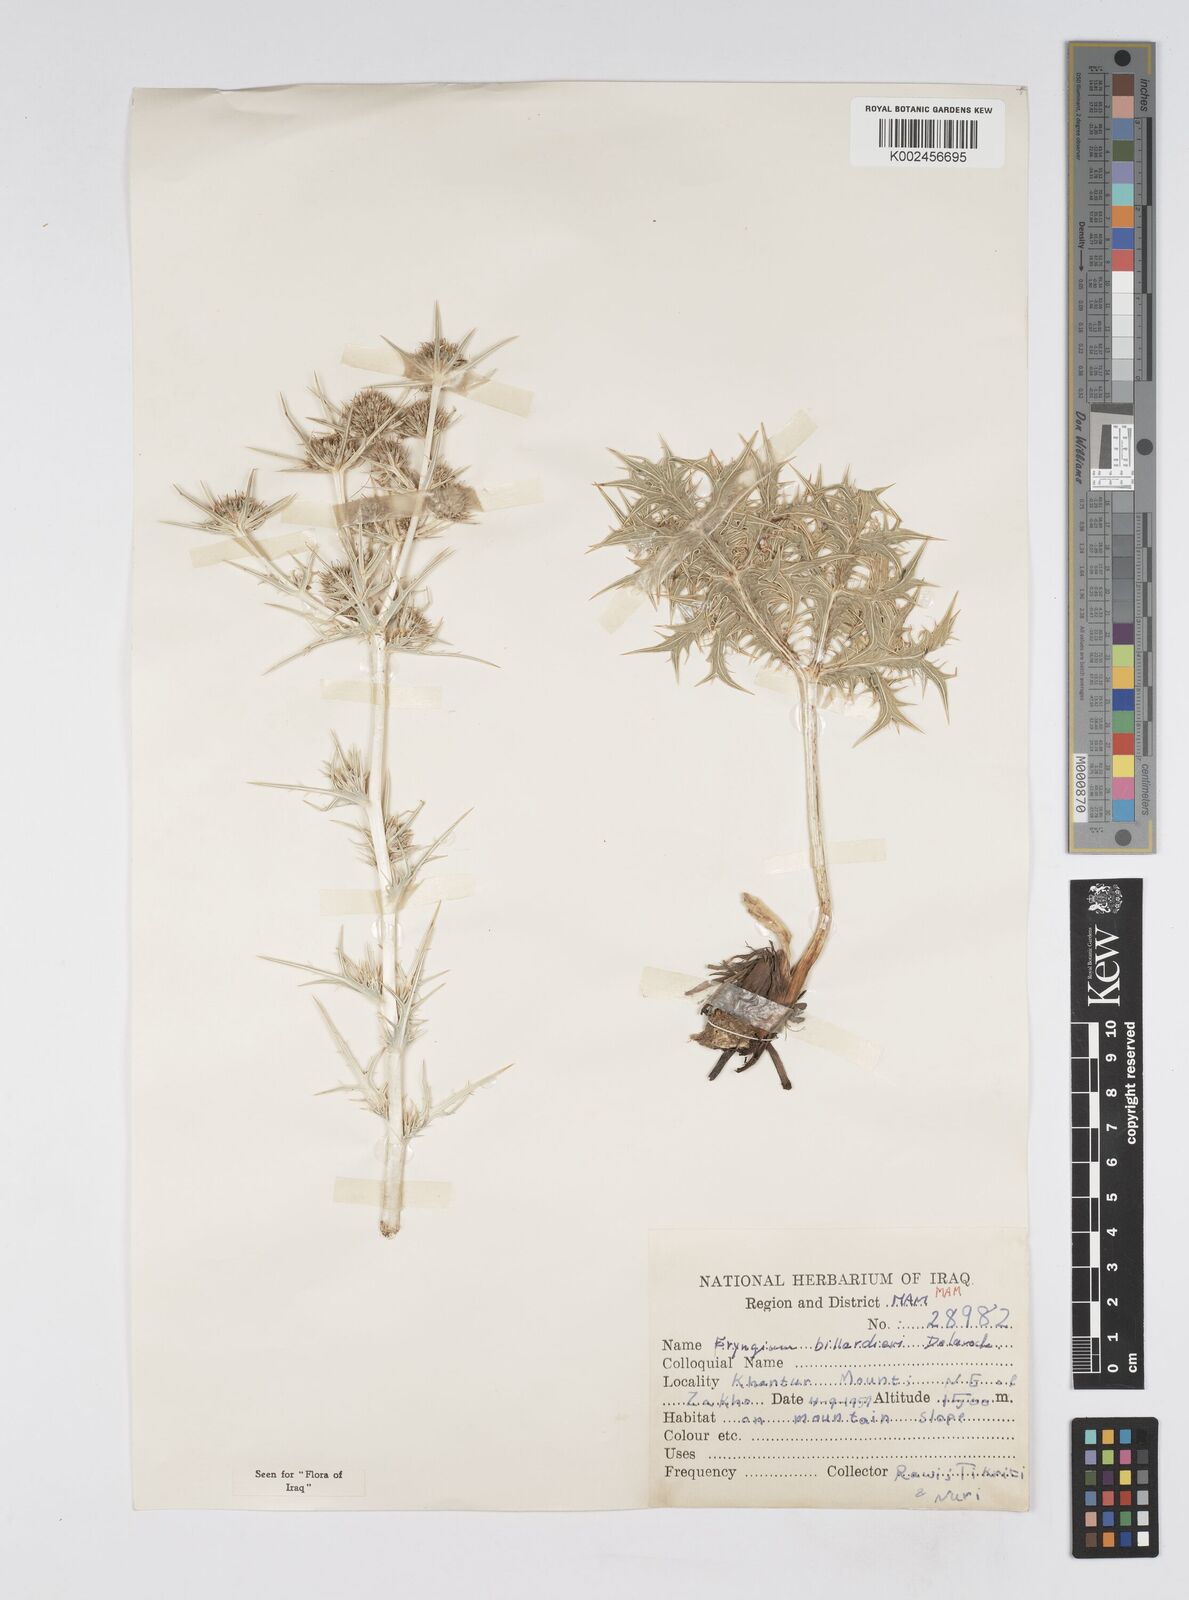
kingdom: Plantae
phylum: Tracheophyta
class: Magnoliopsida
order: Apiales
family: Apiaceae
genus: Eryngium
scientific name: Eryngium billardierei
